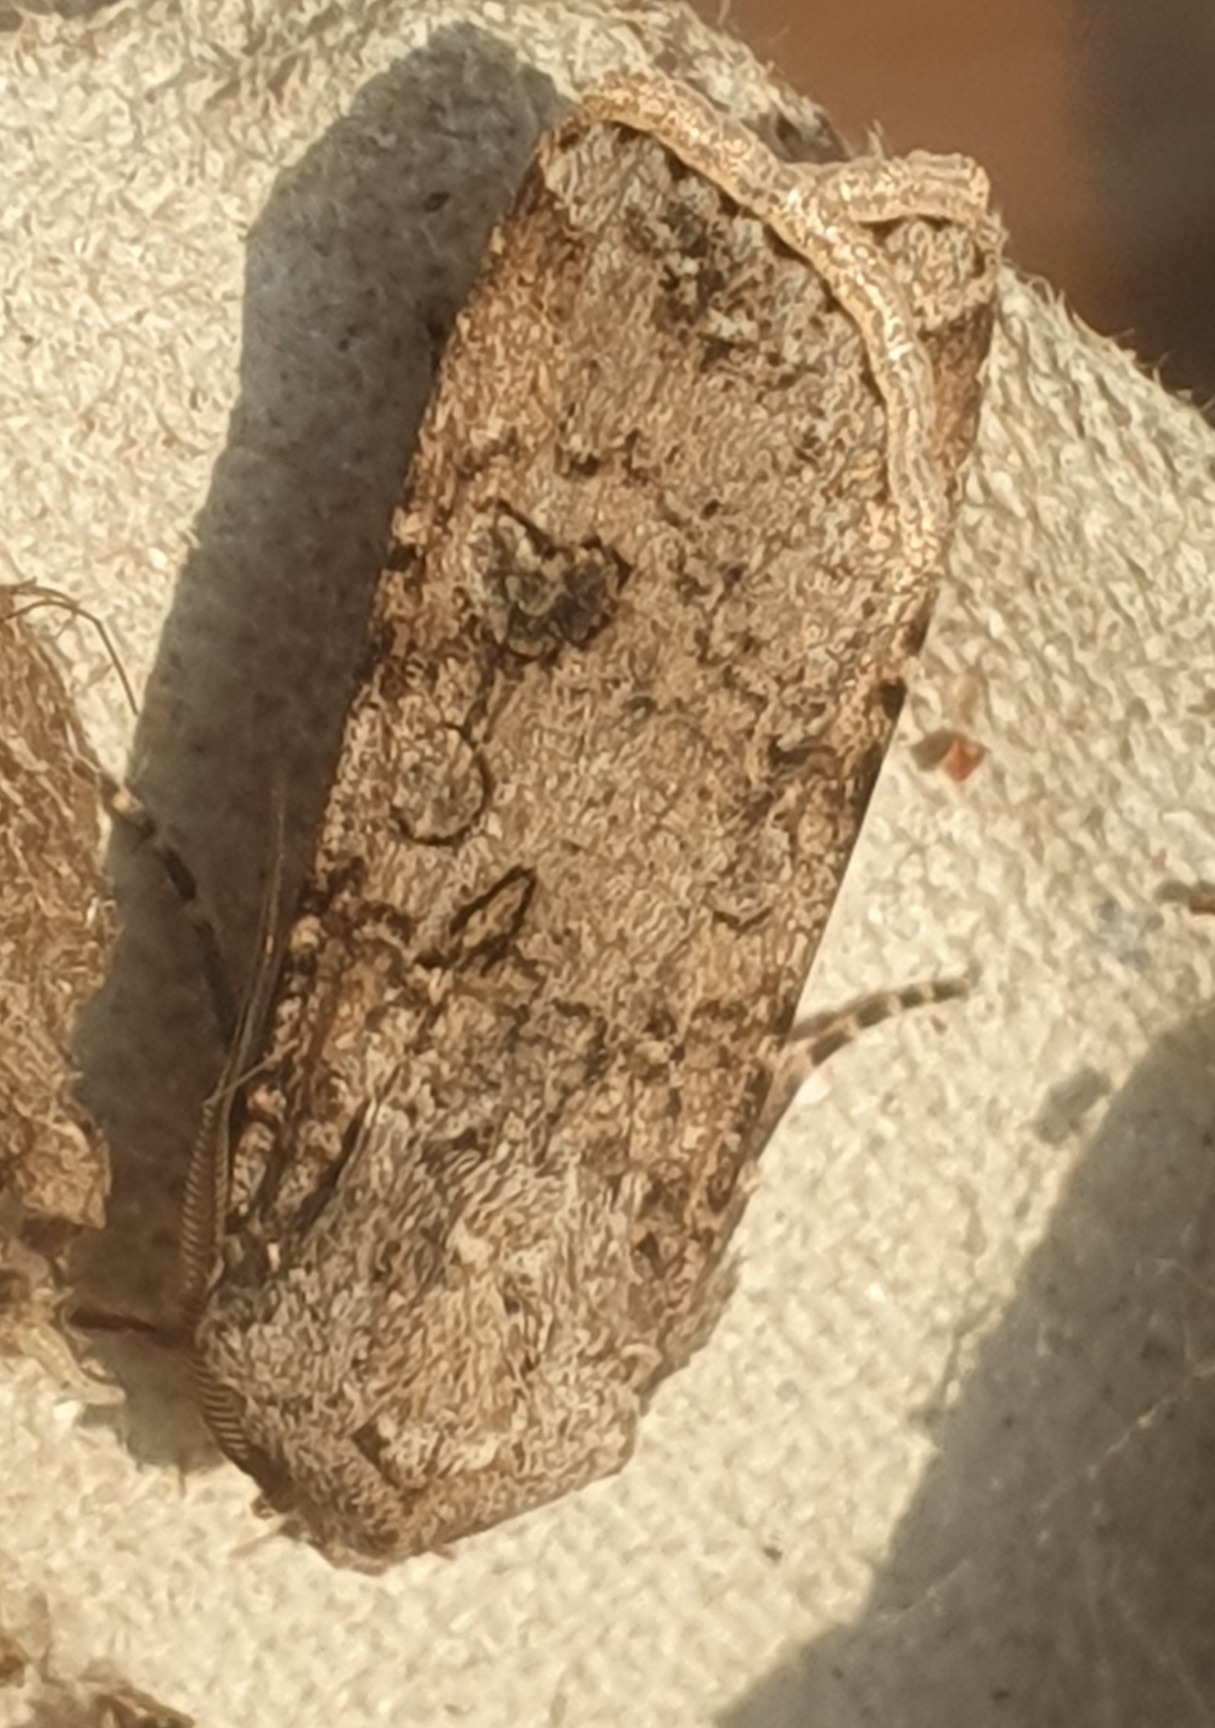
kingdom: Animalia
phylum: Arthropoda
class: Insecta
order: Lepidoptera
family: Noctuidae
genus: Agrotis
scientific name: Agrotis segetum
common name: Agerugle
